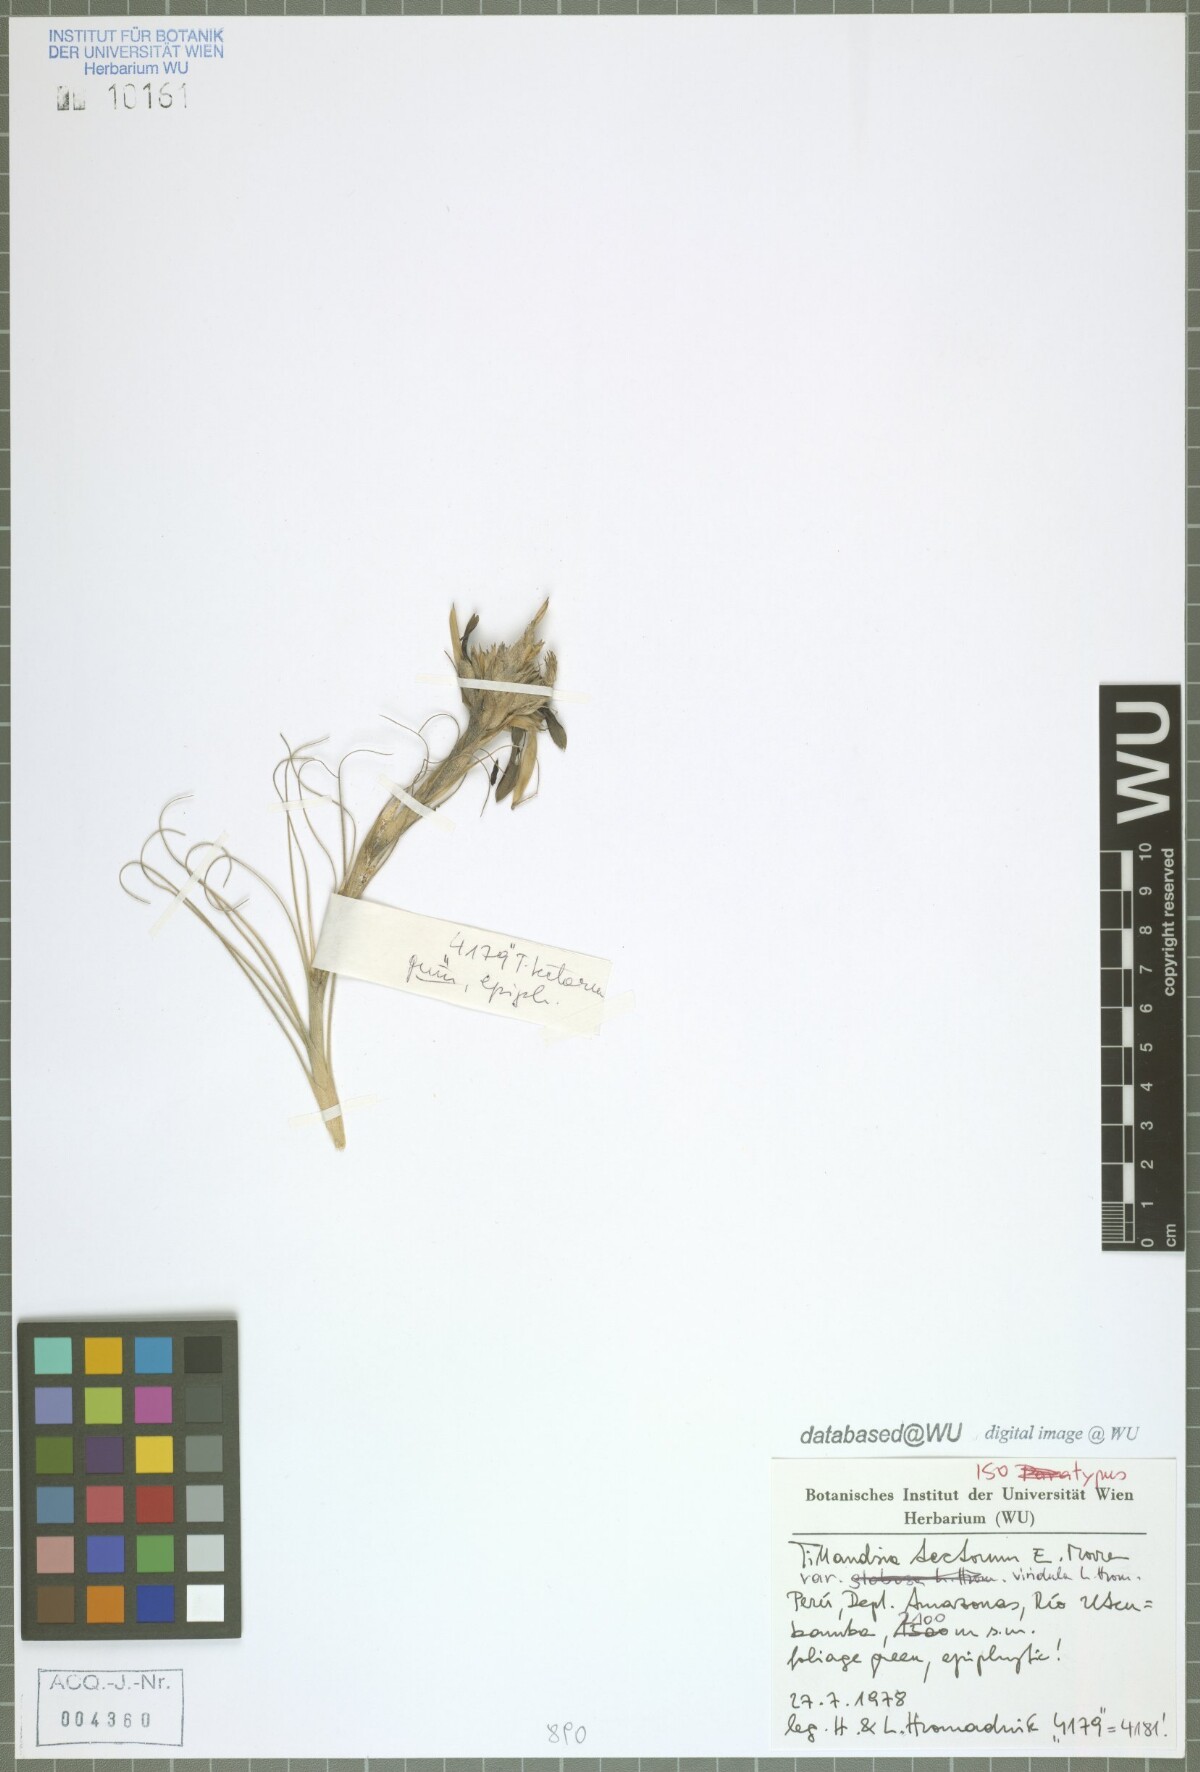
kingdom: Plantae
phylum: Tracheophyta
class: Liliopsida
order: Poales
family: Bromeliaceae
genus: Tillandsia
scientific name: Tillandsia tectorum
